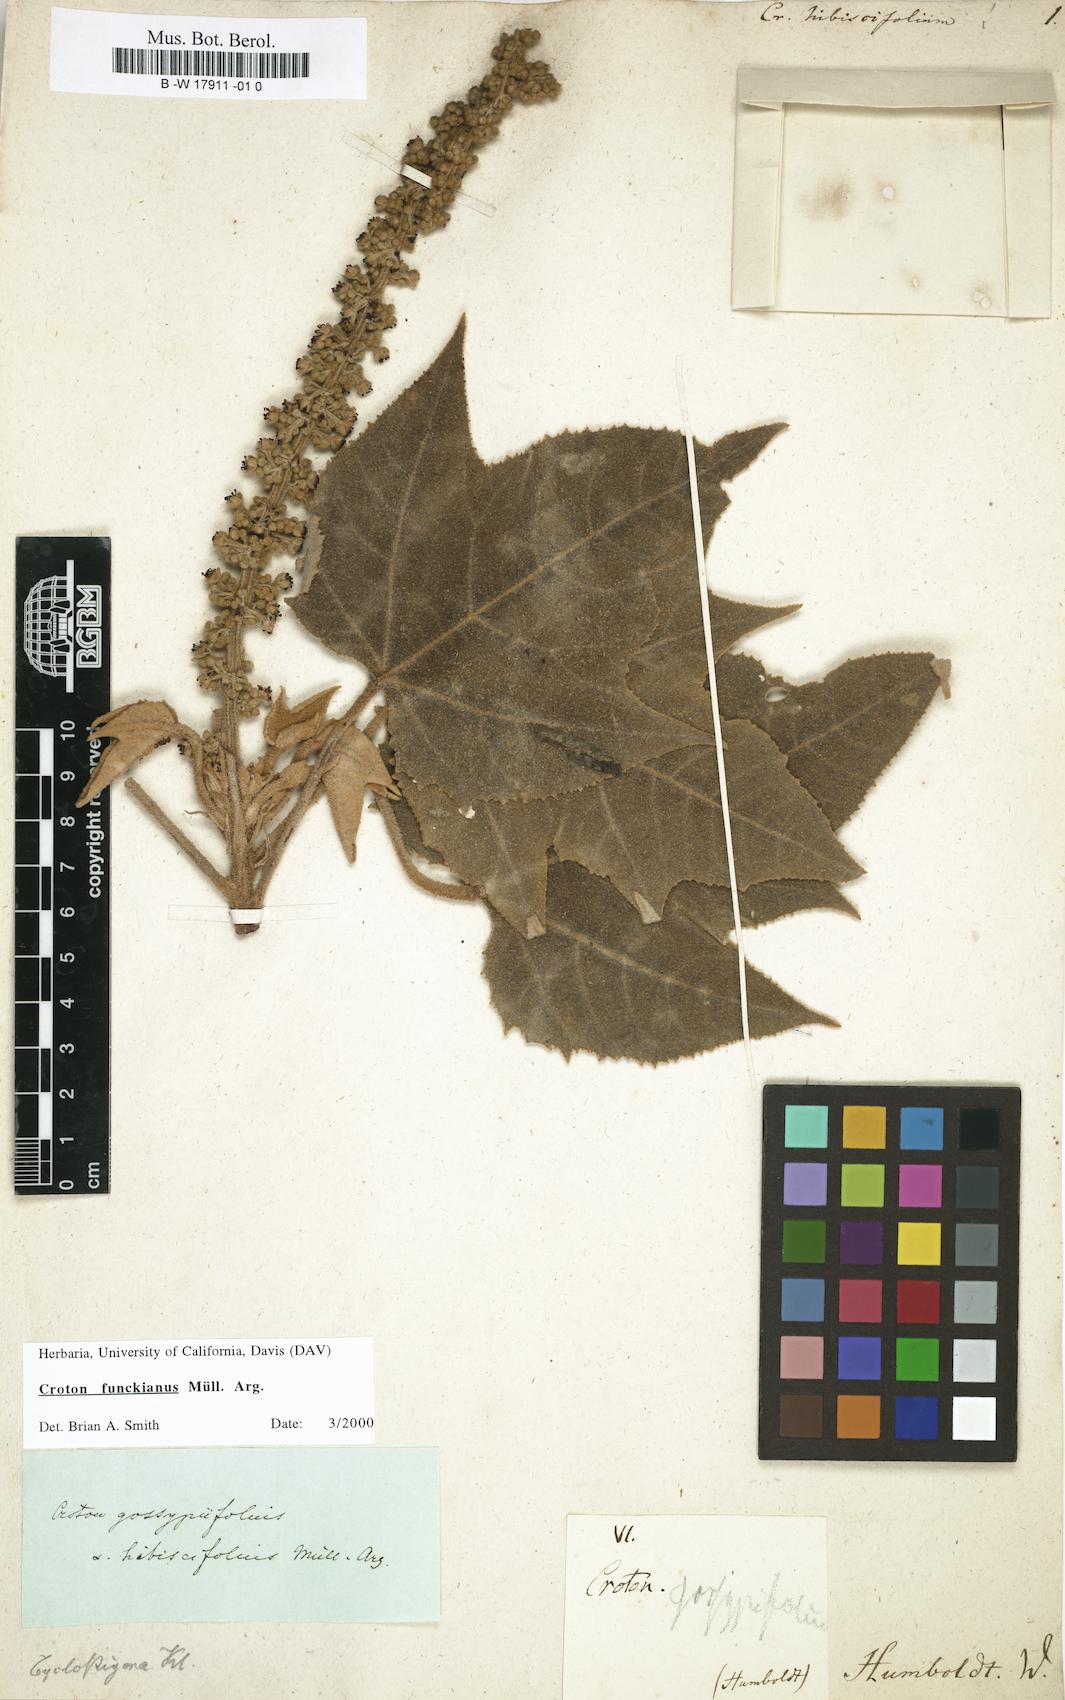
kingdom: Plantae
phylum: Tracheophyta
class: Magnoliopsida
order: Malpighiales
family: Euphorbiaceae
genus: Croton
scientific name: Croton hibiscifolius
